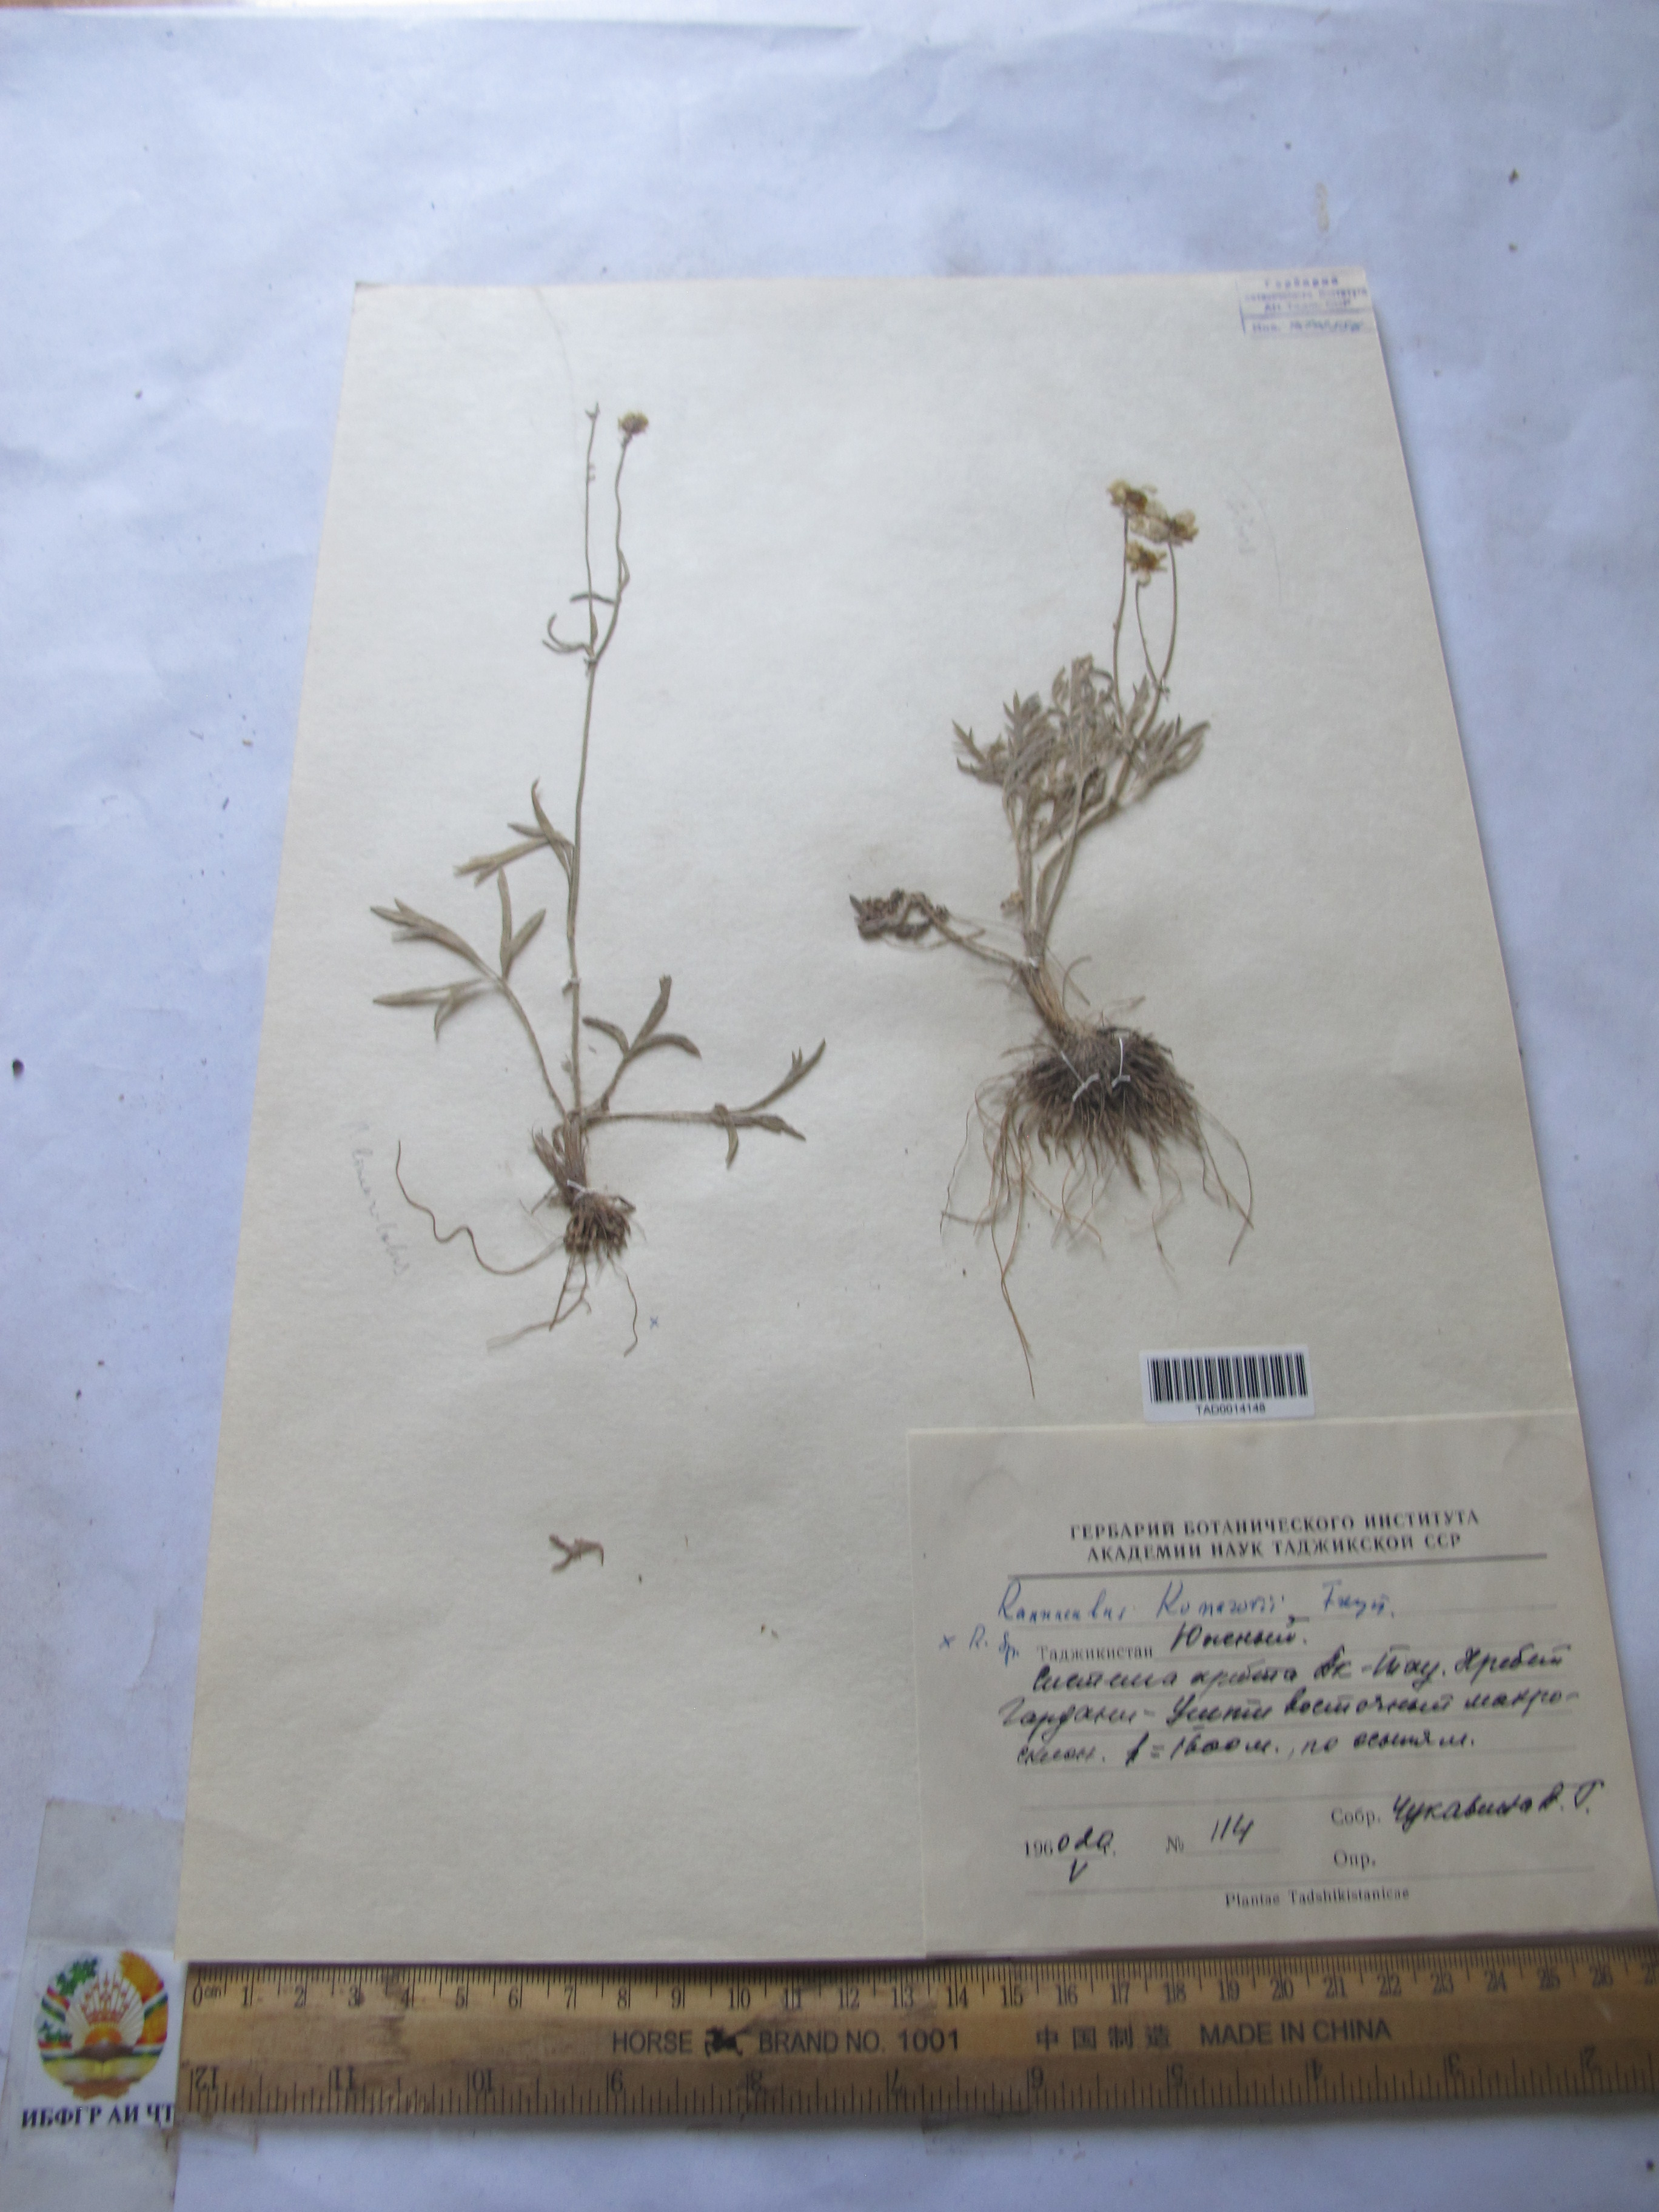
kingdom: Plantae
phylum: Tracheophyta
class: Magnoliopsida
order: Ranunculales
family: Ranunculaceae
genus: Ranunculus
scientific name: Ranunculus komarovii
